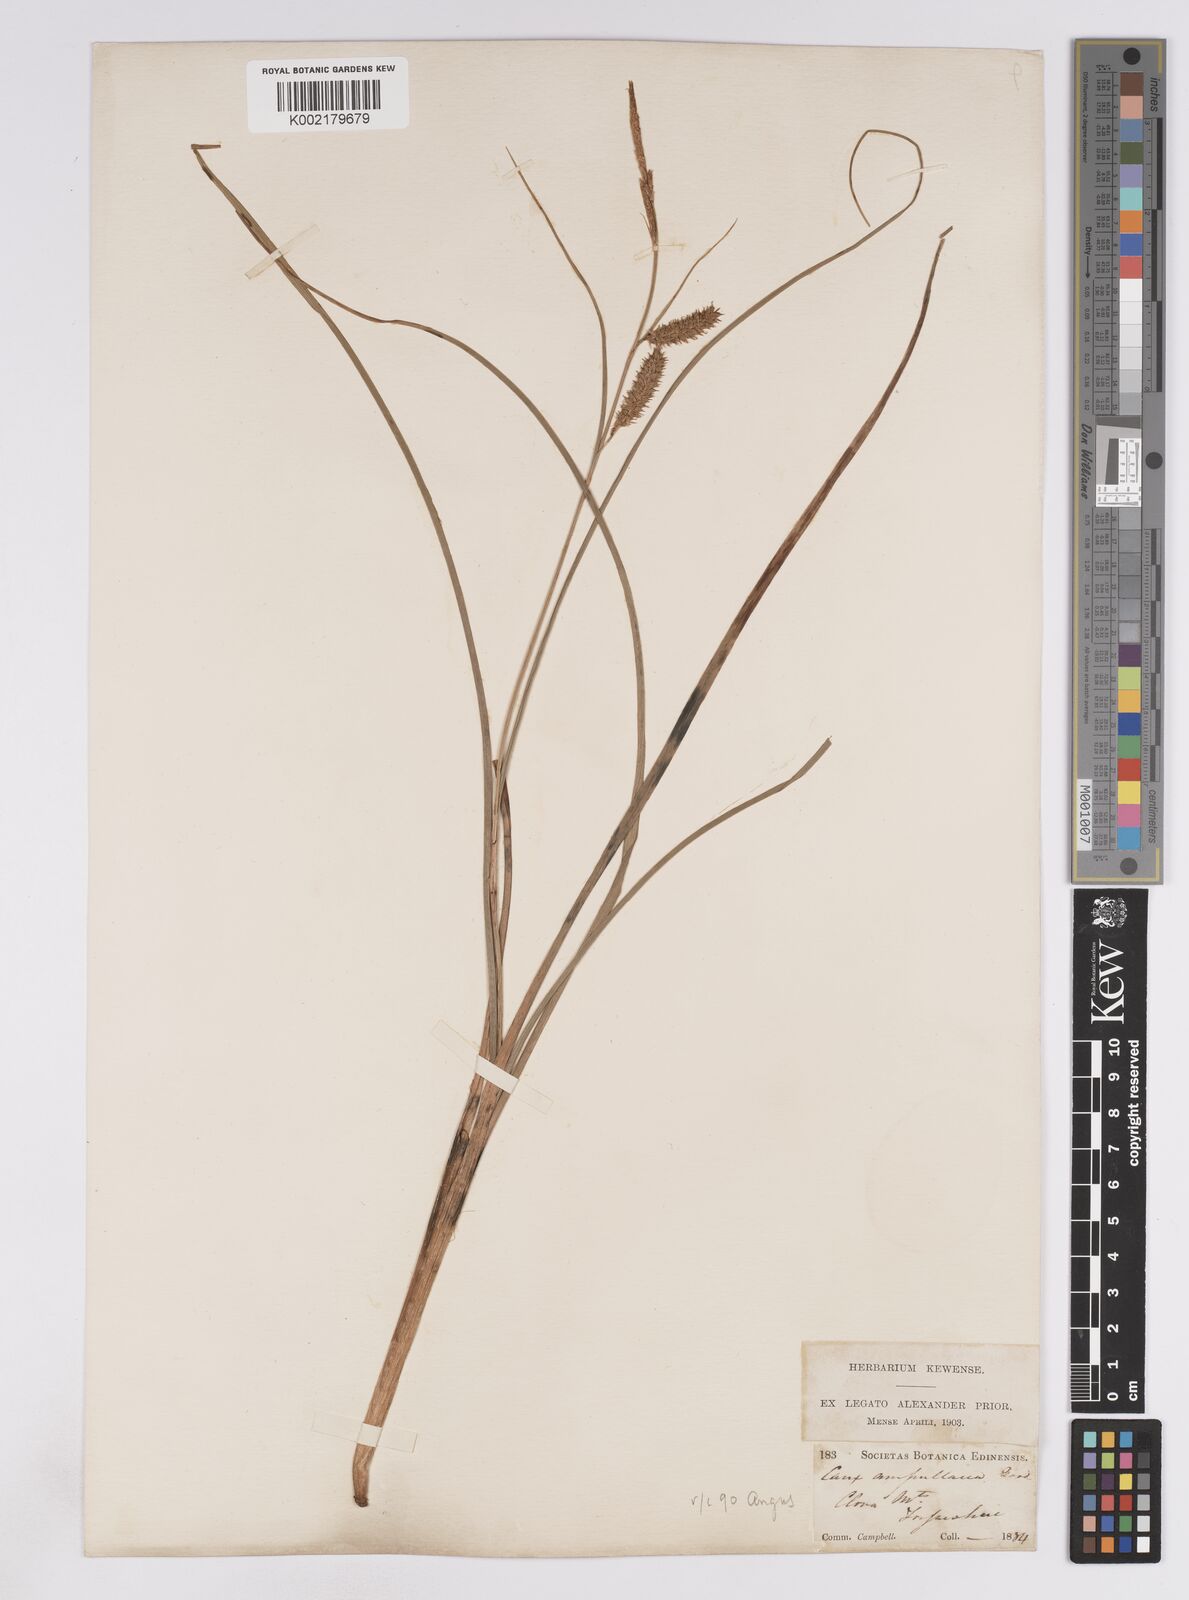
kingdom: Plantae
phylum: Tracheophyta
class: Liliopsida
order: Poales
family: Cyperaceae
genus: Carex
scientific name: Carex rostrata
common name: Bottle sedge
